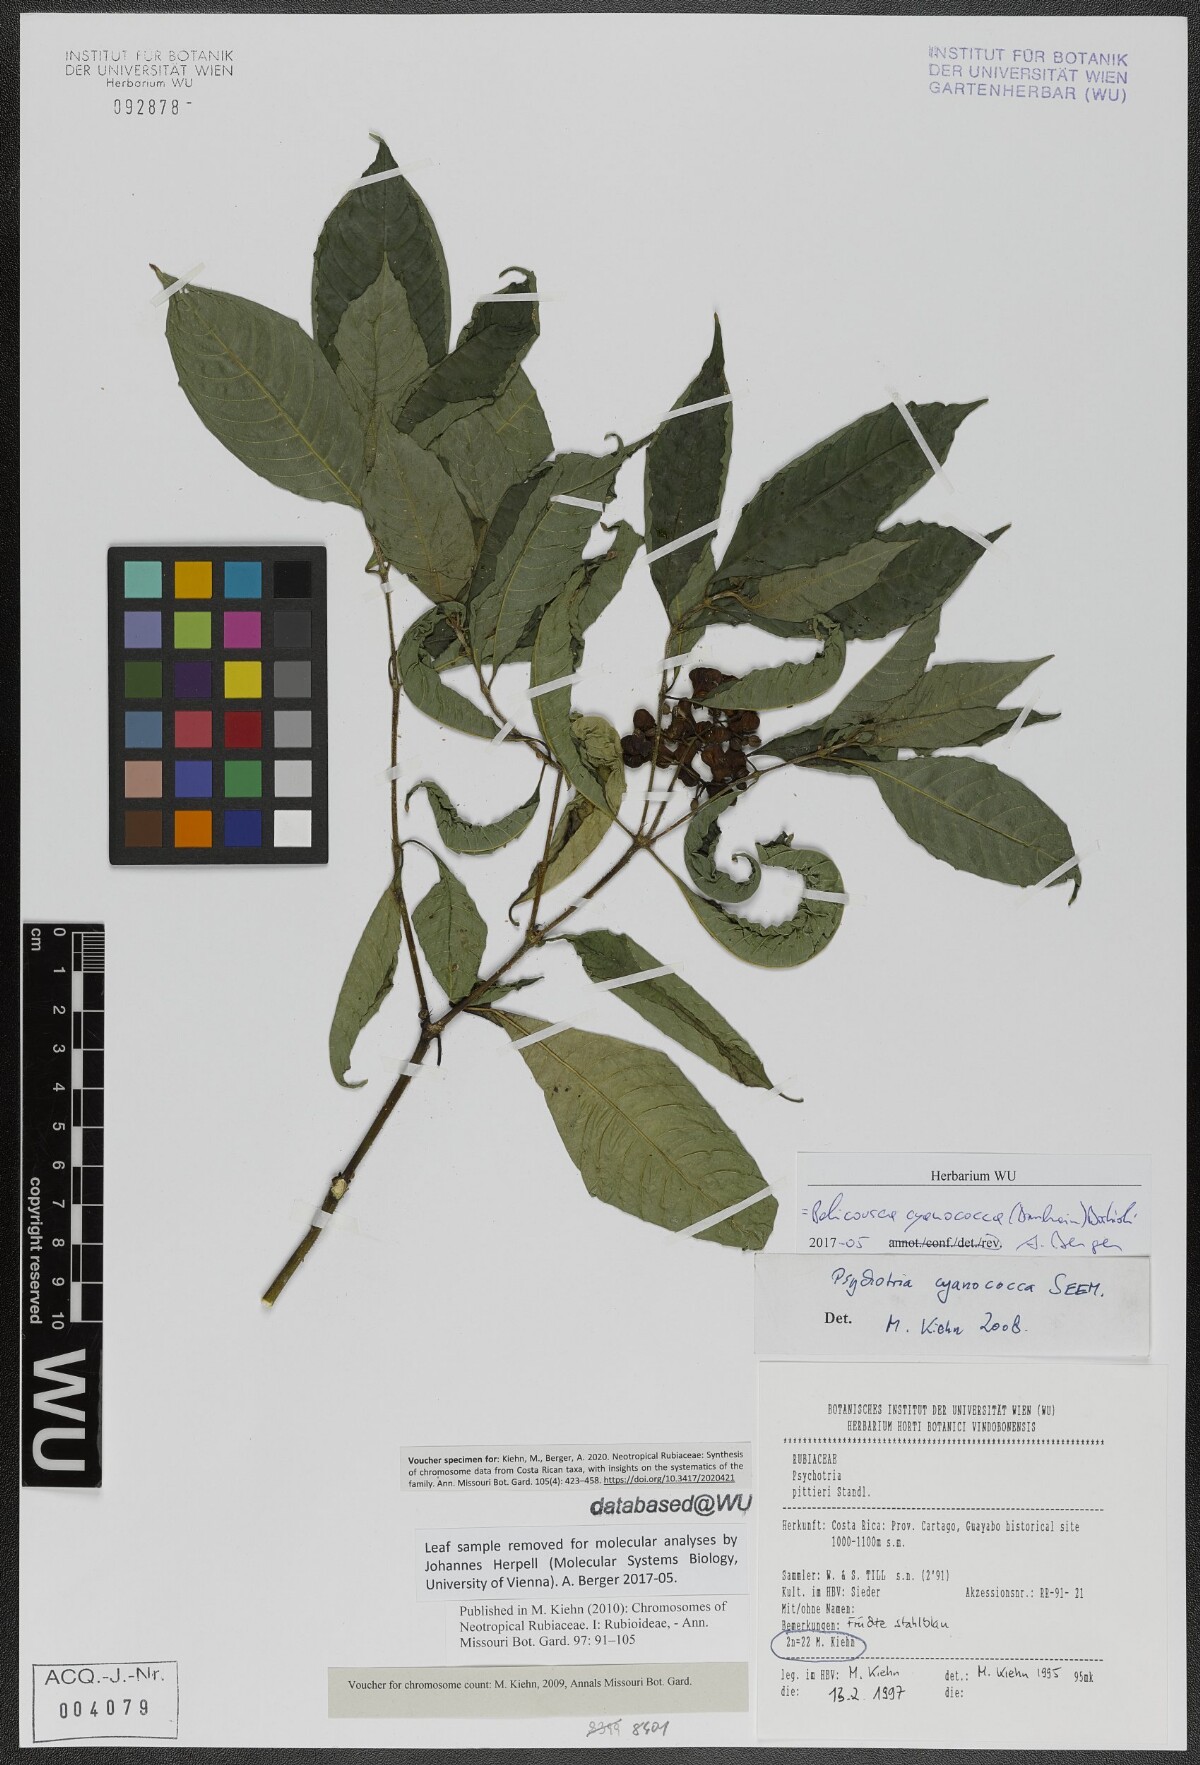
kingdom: Plantae
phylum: Tracheophyta
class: Magnoliopsida
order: Gentianales
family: Rubiaceae
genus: Palicourea
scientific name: Palicourea cyanococca
